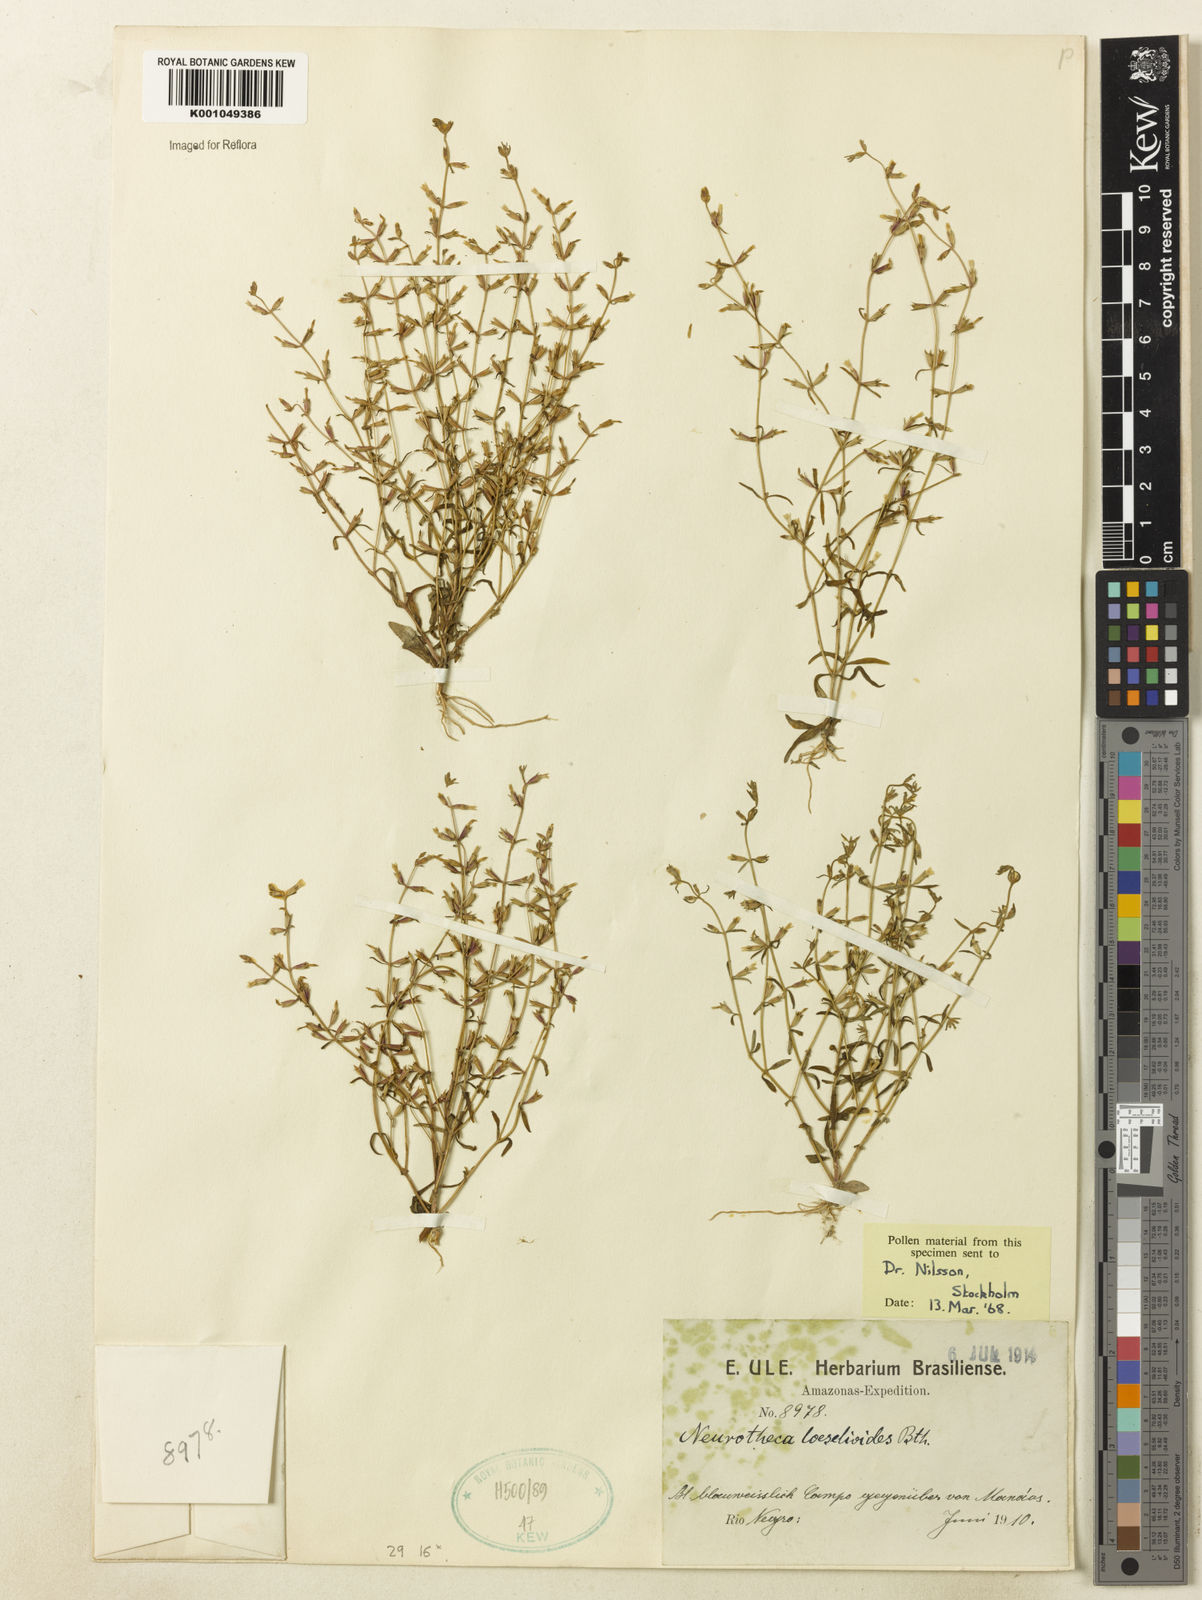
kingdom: Plantae
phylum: Tracheophyta
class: Magnoliopsida
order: Gentianales
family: Gentianaceae
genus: Neurotheca
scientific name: Neurotheca loeselioides
